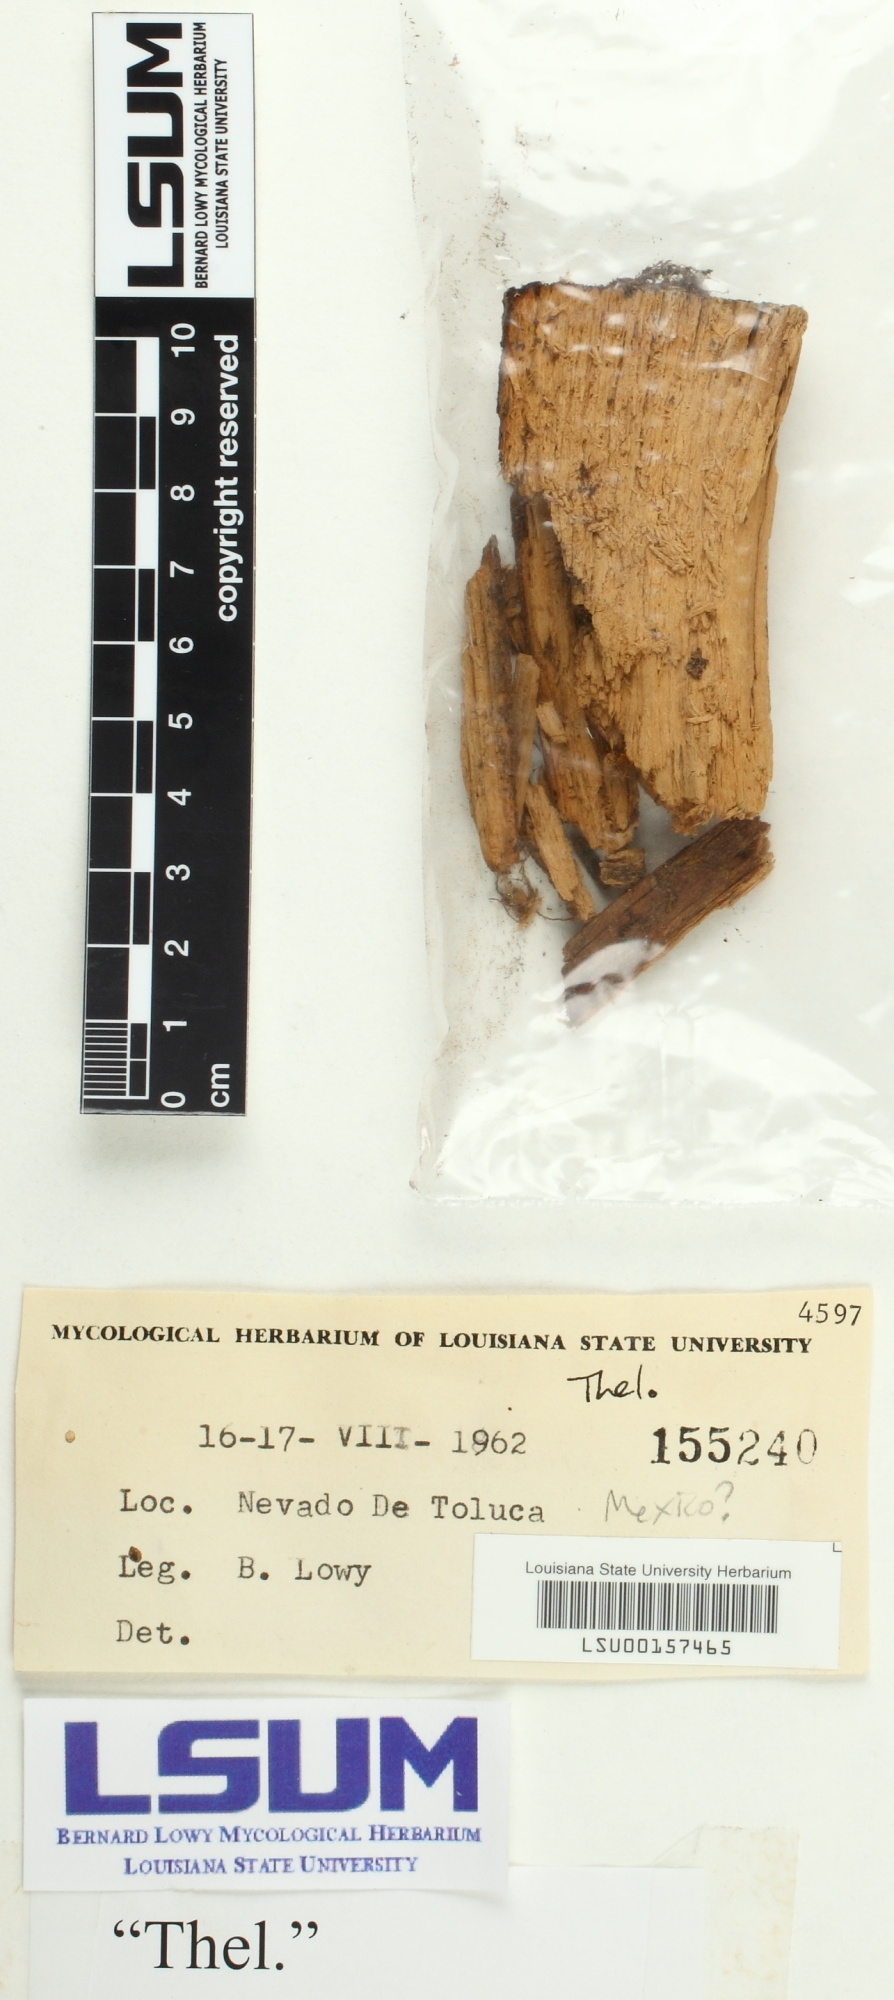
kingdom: Fungi
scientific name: Fungi
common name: Fungi
